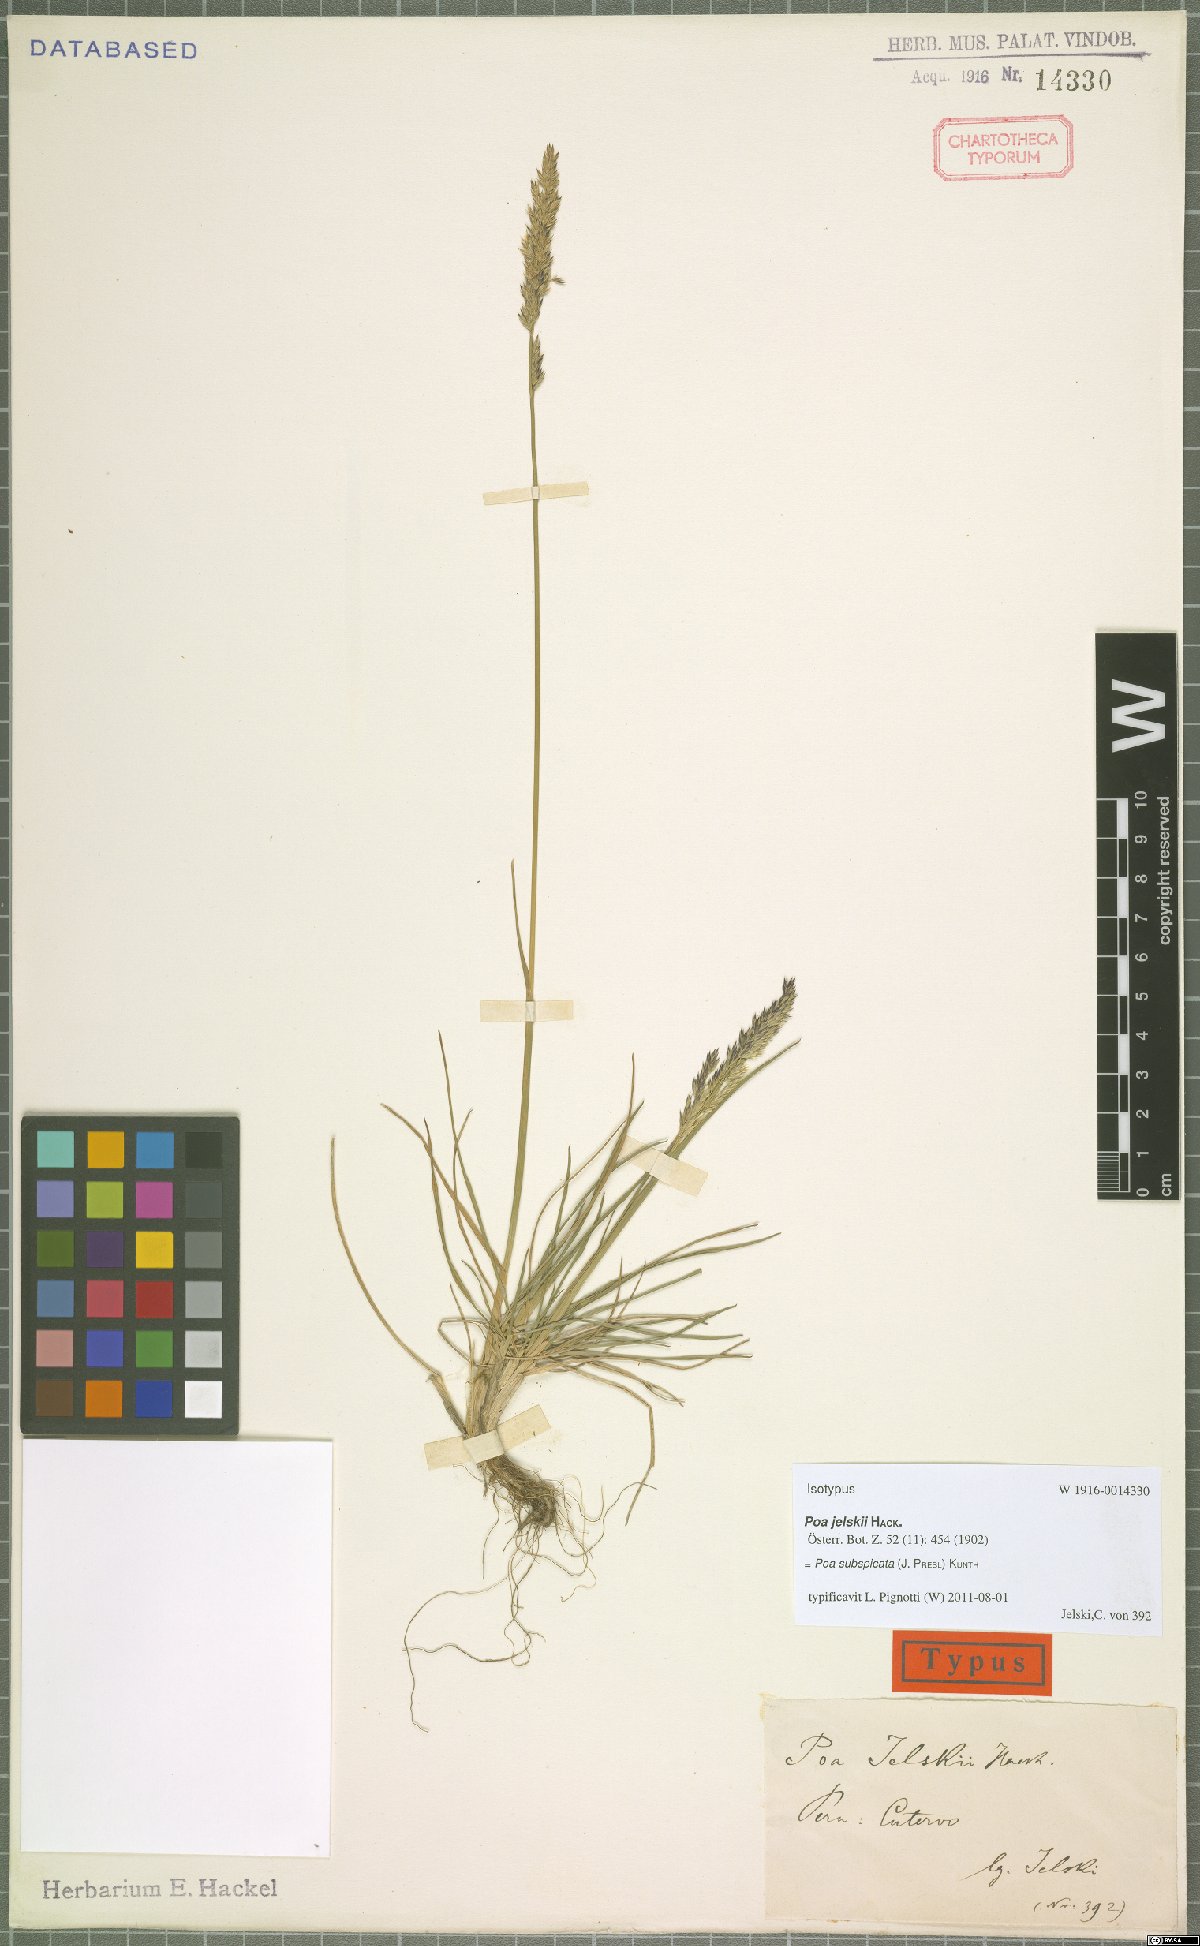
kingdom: Plantae
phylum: Tracheophyta
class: Liliopsida
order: Poales
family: Poaceae
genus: Poa
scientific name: Poa subspicata
